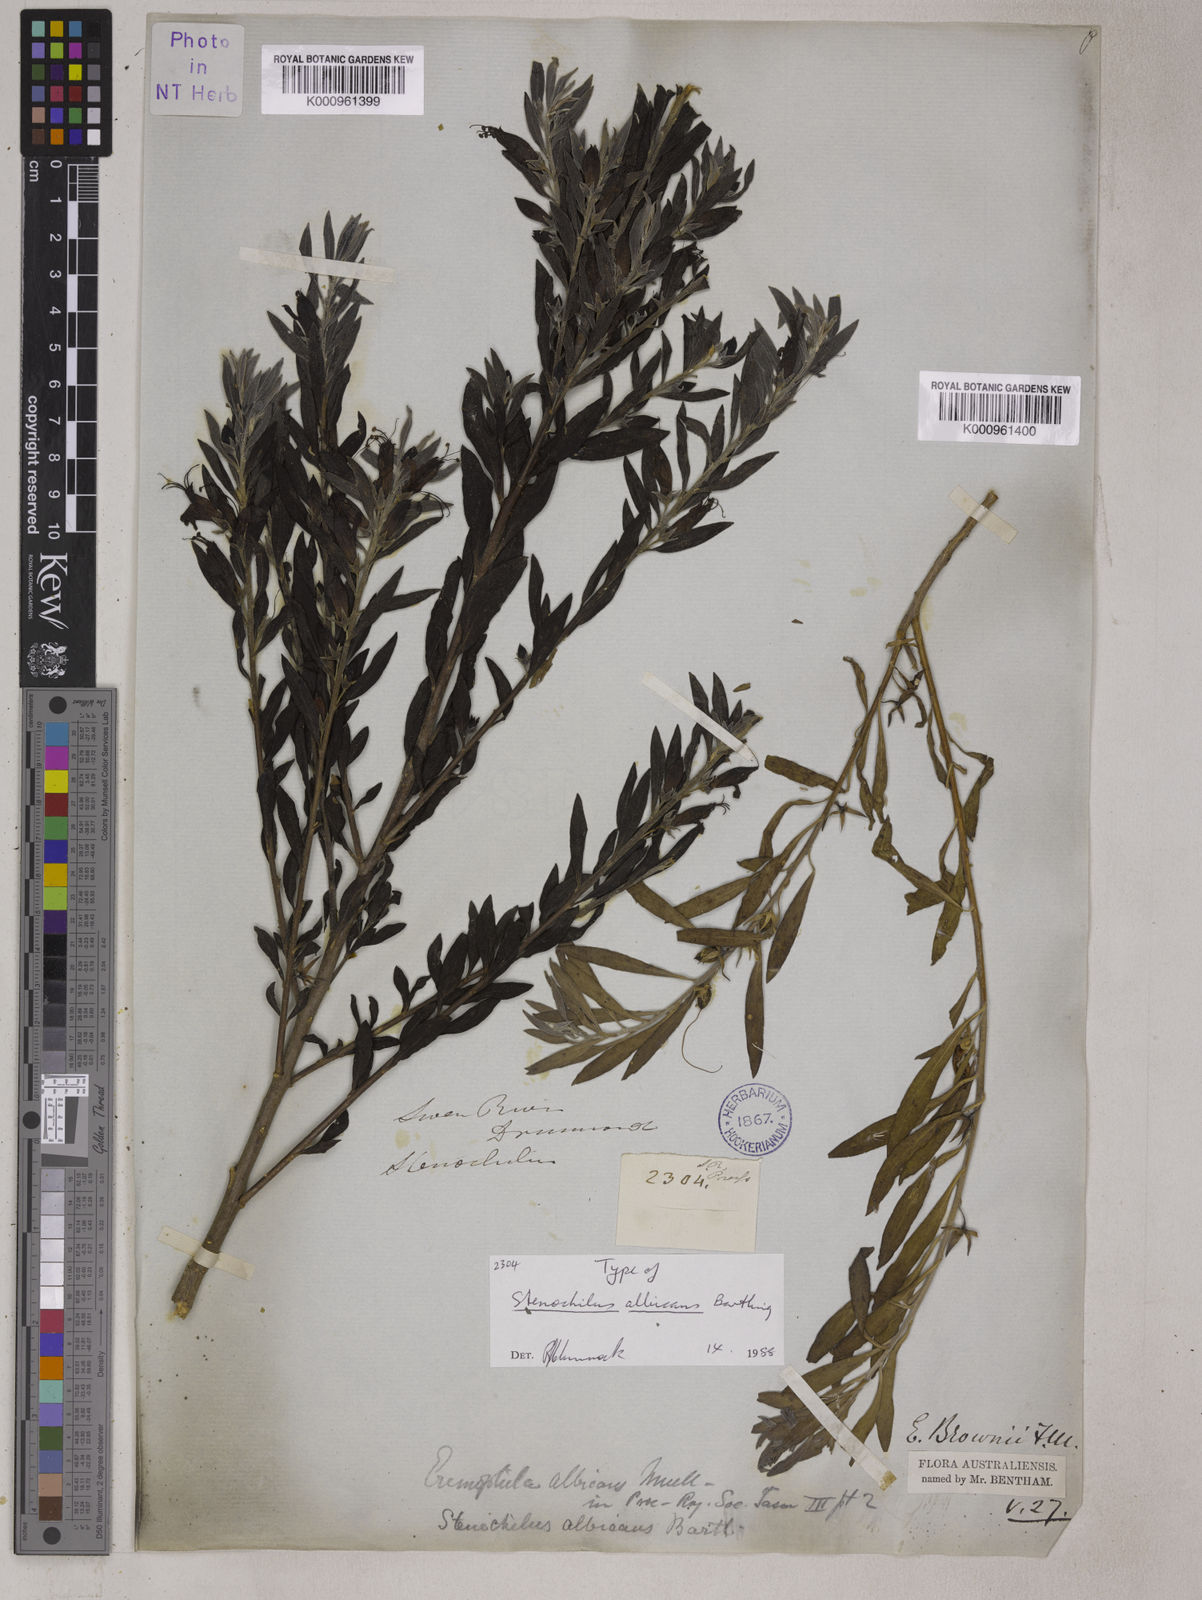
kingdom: Plantae
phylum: Tracheophyta
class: Magnoliopsida
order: Lamiales
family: Scrophulariaceae
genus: Eremophila
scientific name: Eremophila glabra
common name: Black-fuchsia
